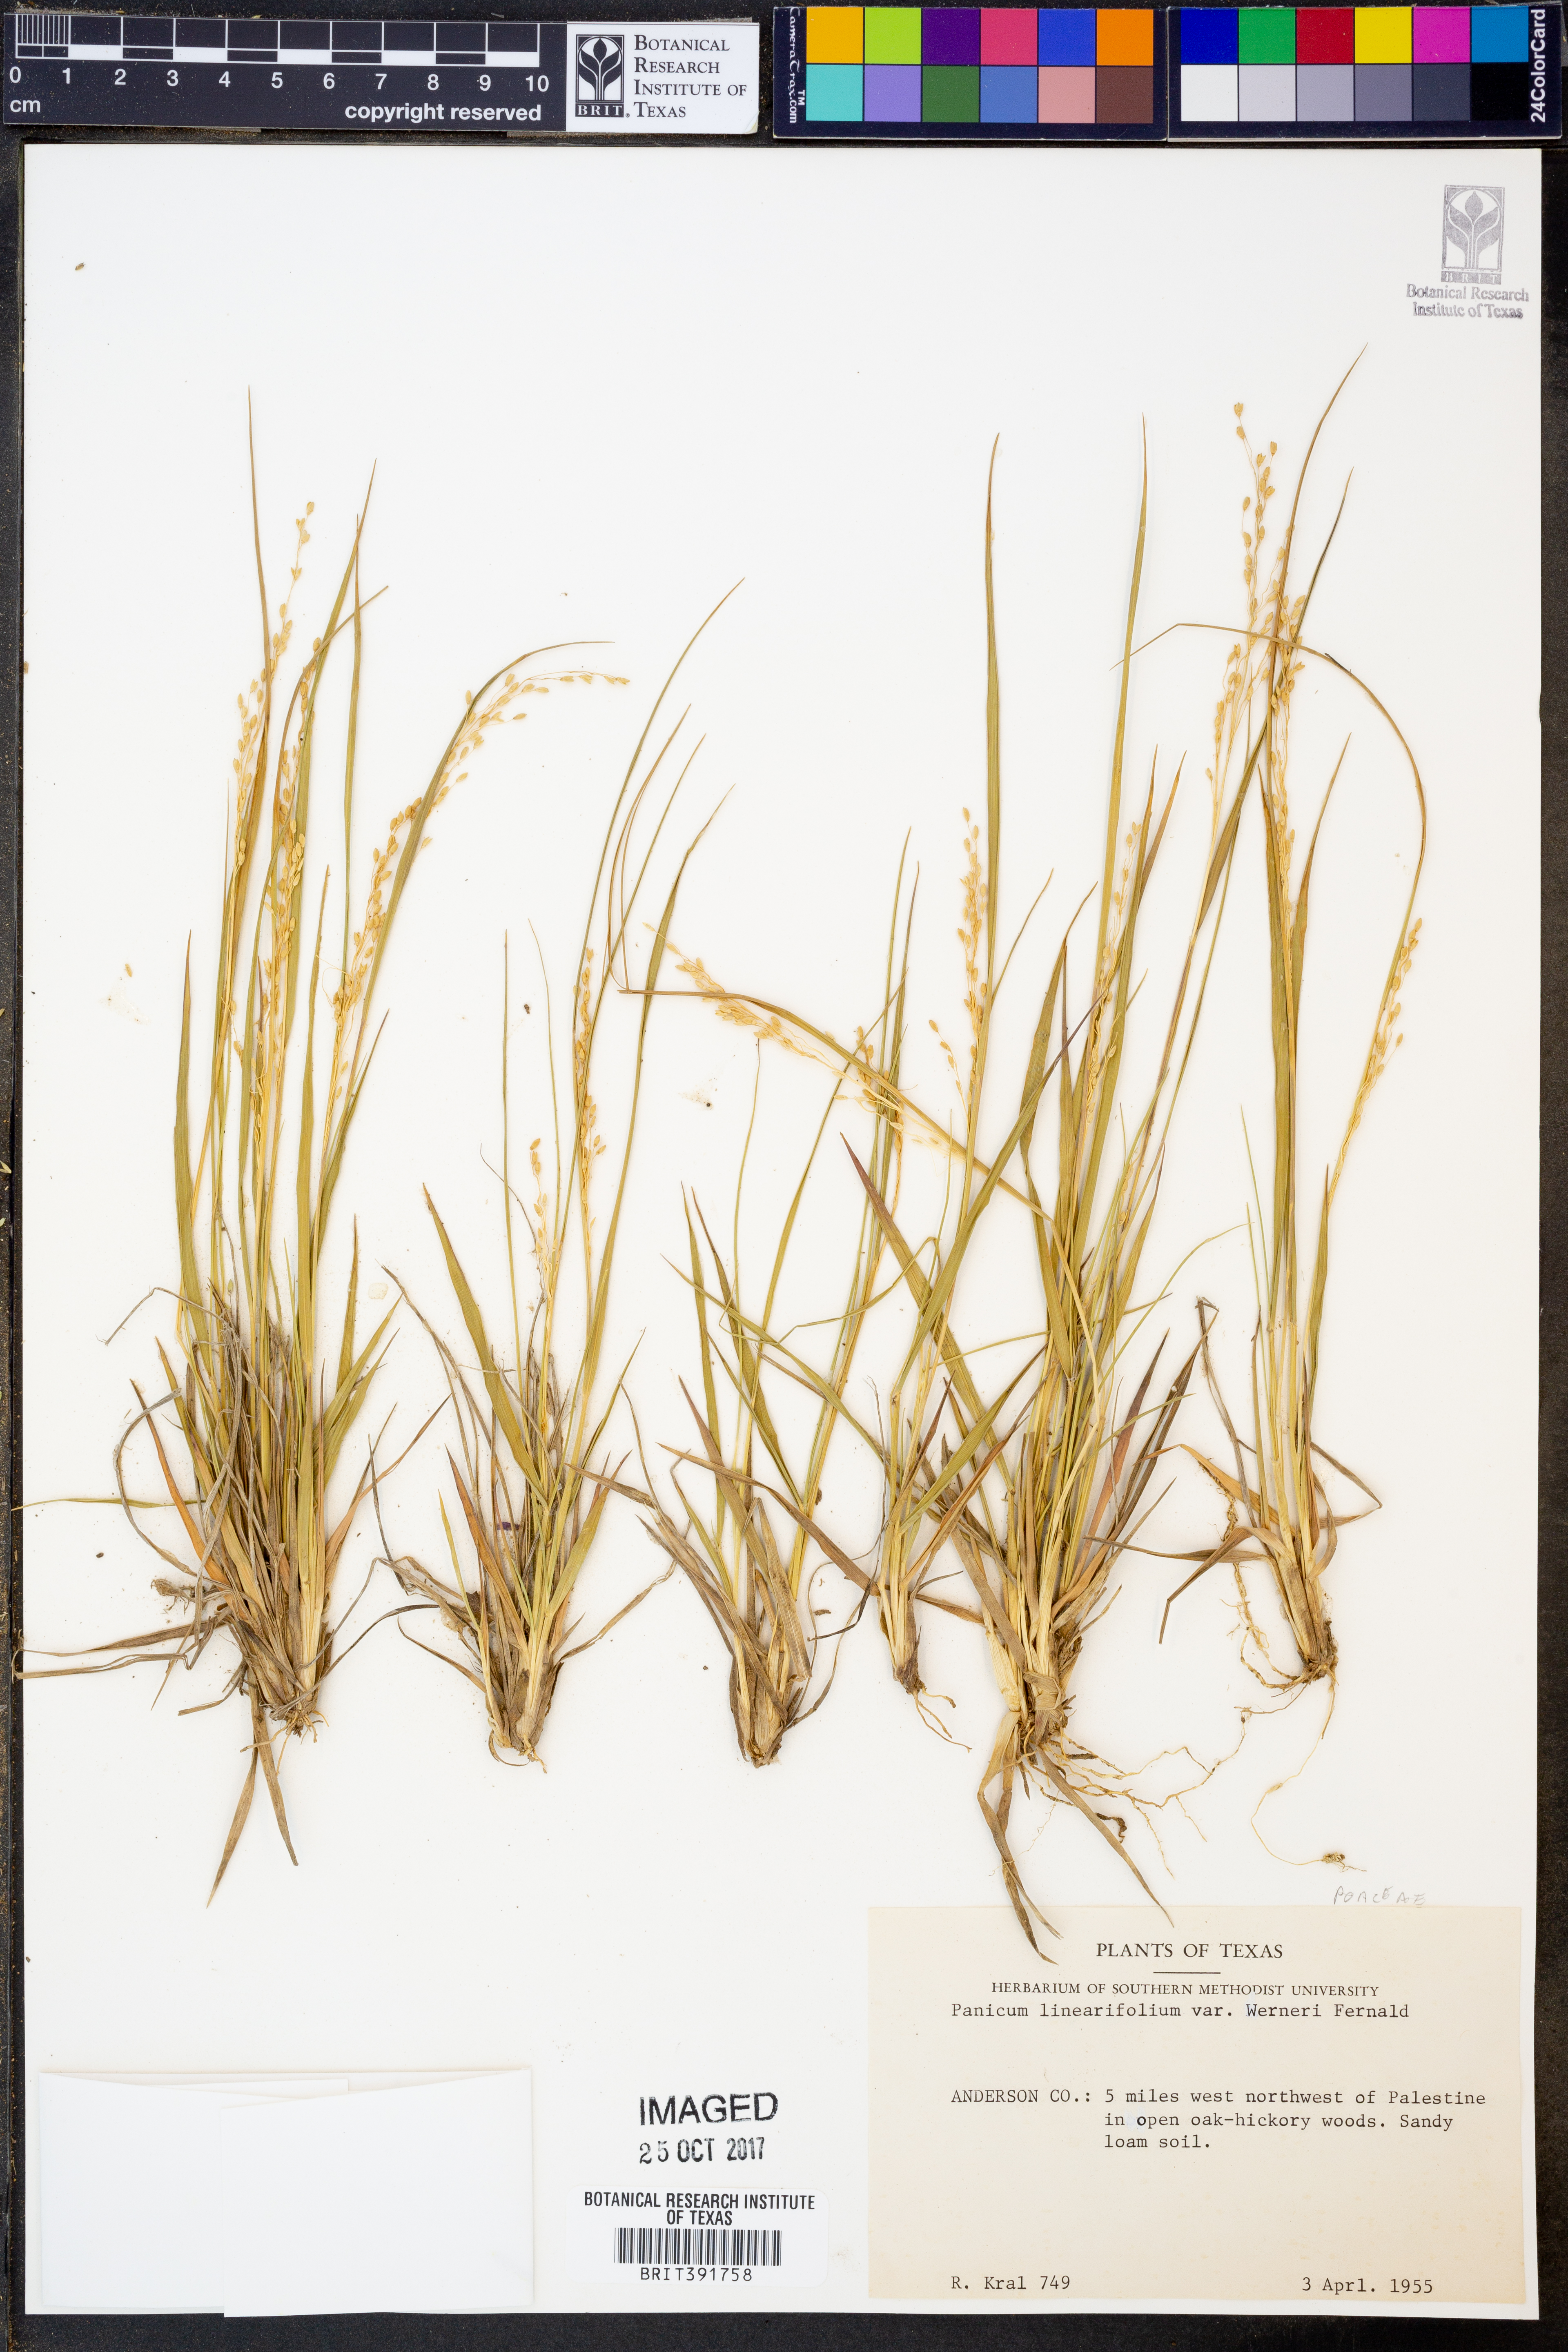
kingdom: Plantae
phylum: Tracheophyta
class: Liliopsida
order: Poales
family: Poaceae
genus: Dichanthelium
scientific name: Dichanthelium linearifolium
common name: Linear-leaved panicgrass
